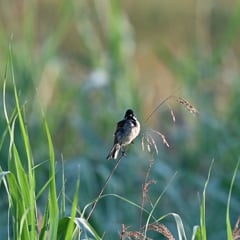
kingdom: Animalia
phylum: Chordata
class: Aves
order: Passeriformes
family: Emberizidae
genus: Emberiza
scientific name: Emberiza schoeniclus
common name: Reed bunting
